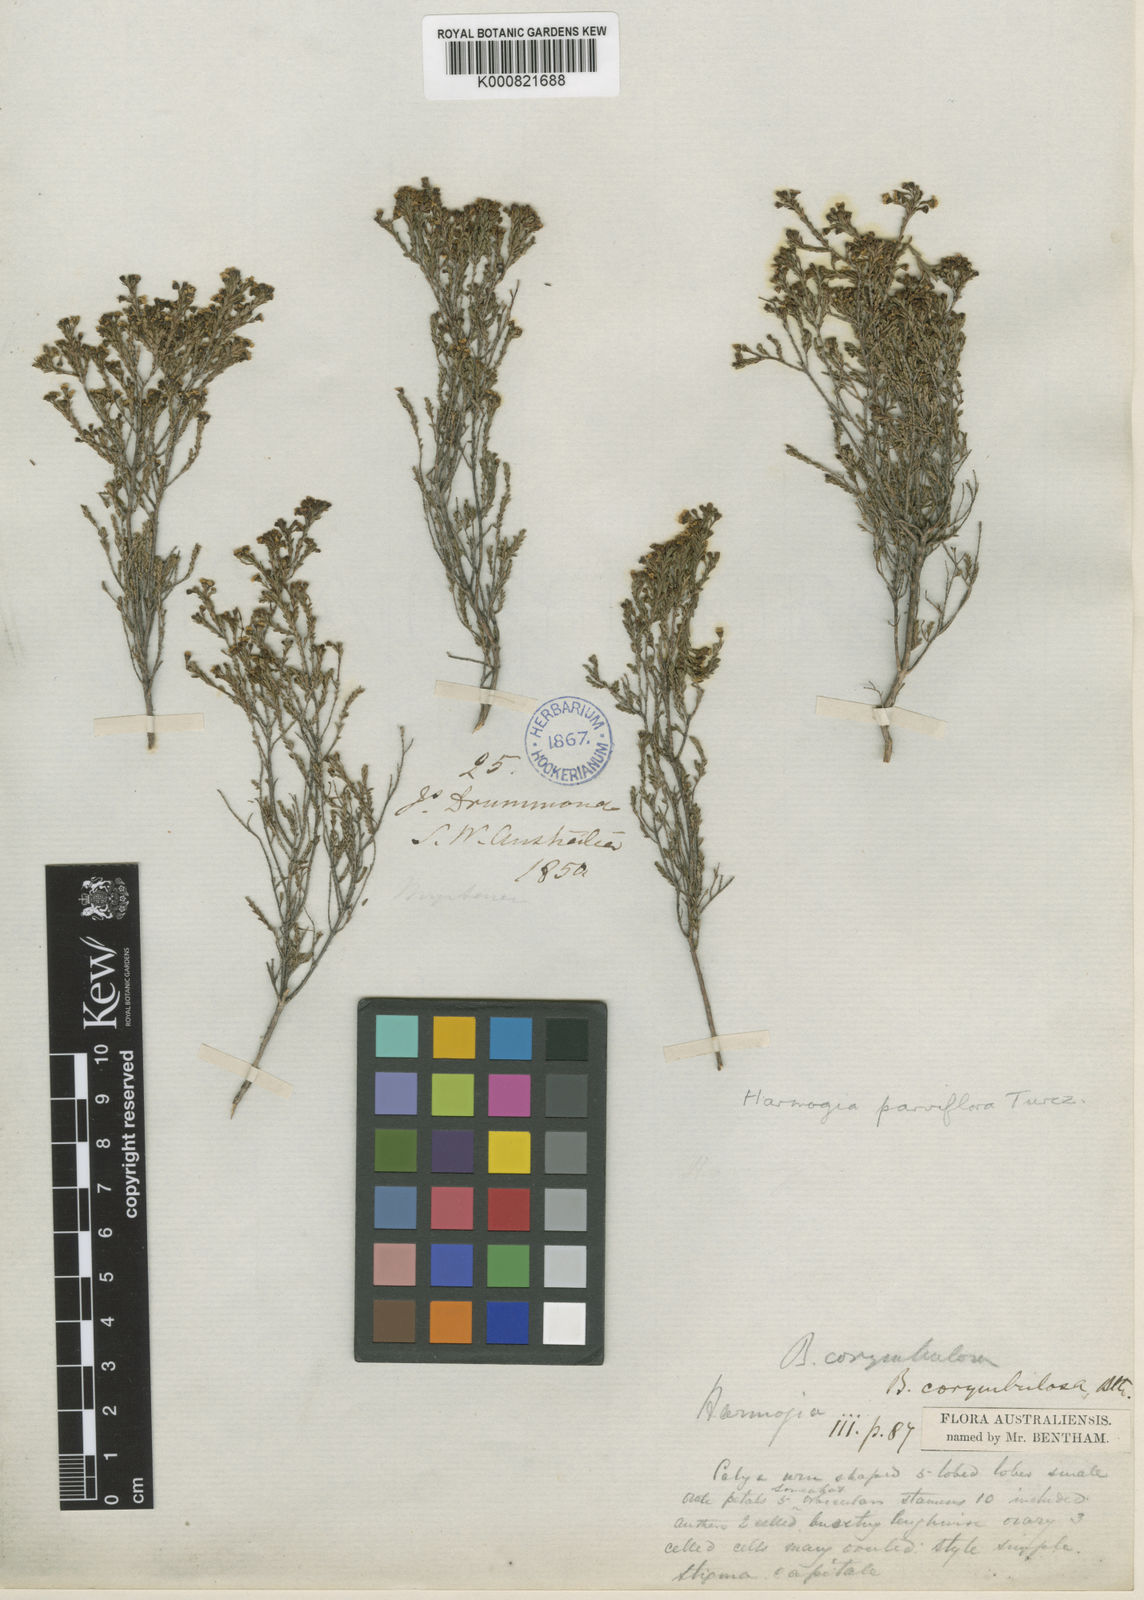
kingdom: Plantae
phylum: Tracheophyta
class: Magnoliopsida
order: Myrtales
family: Myrtaceae
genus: Ericomyrtus
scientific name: Ericomyrtus parviflora
